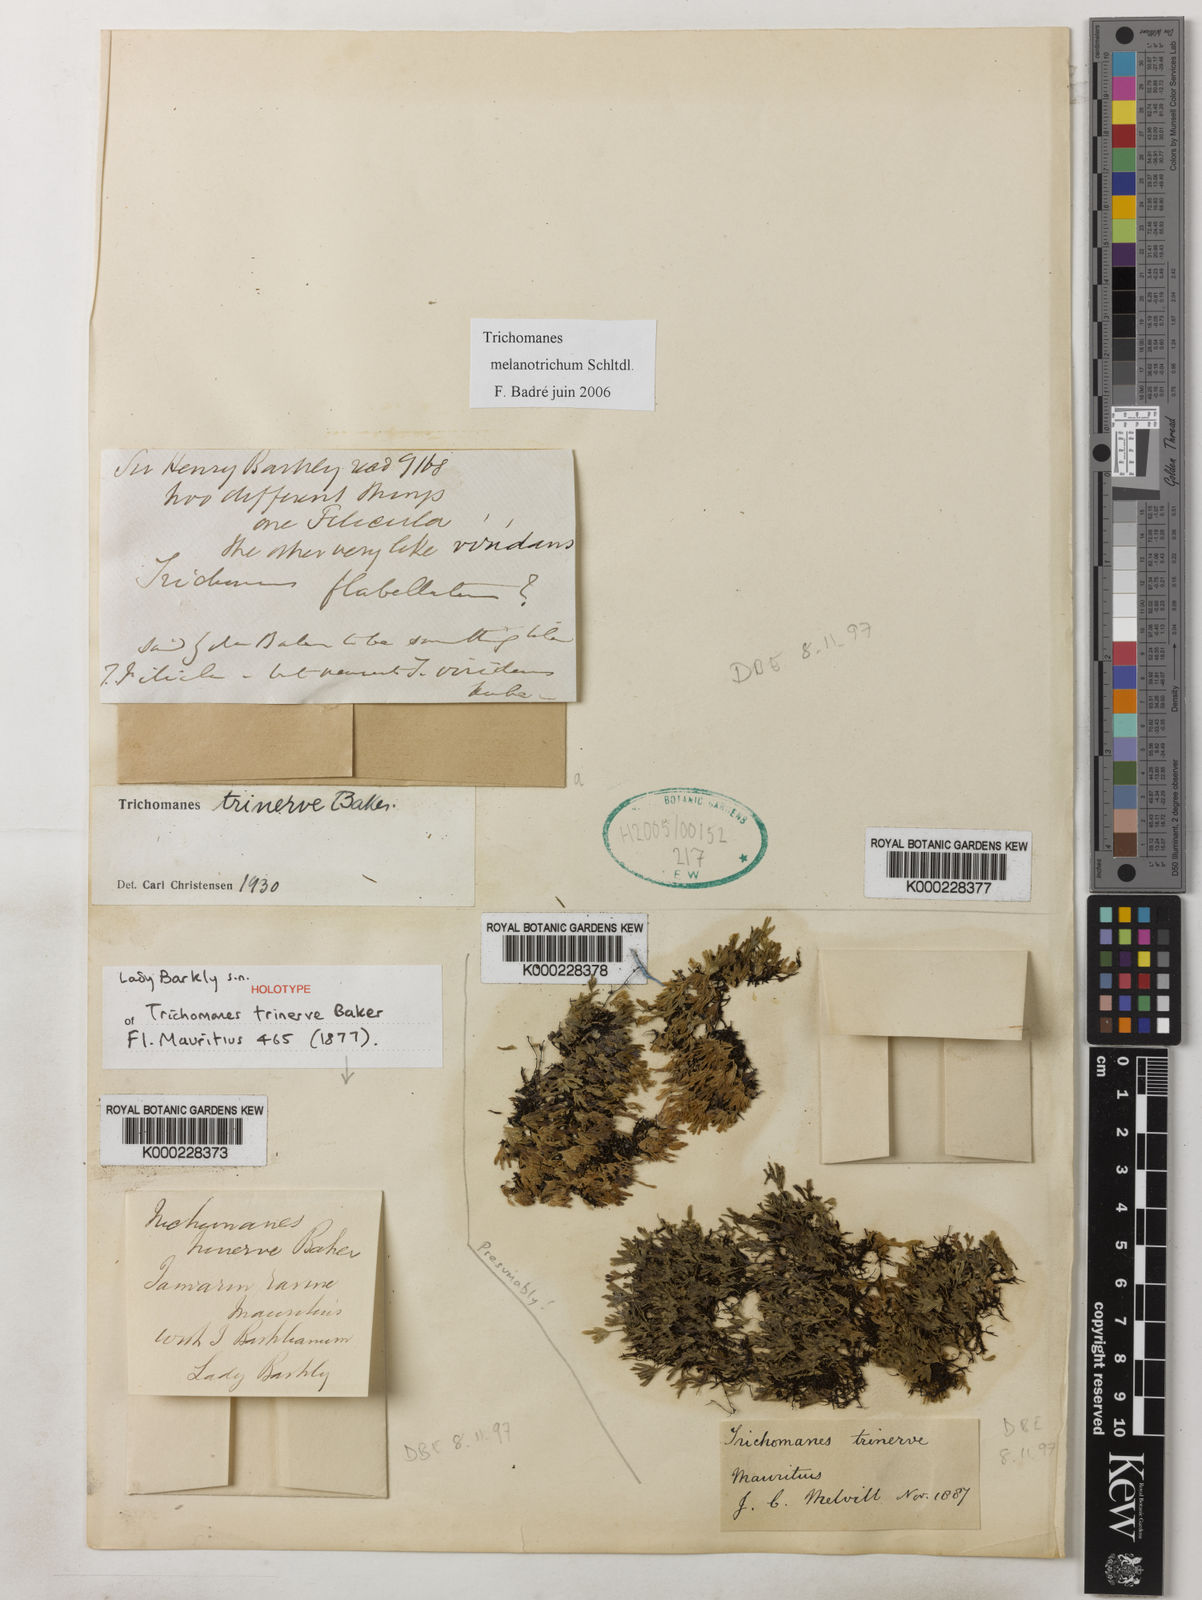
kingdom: Plantae
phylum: Tracheophyta
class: Polypodiopsida
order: Hymenophyllales
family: Hymenophyllaceae
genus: Crepidomanes
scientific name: Crepidomanes trinerve
